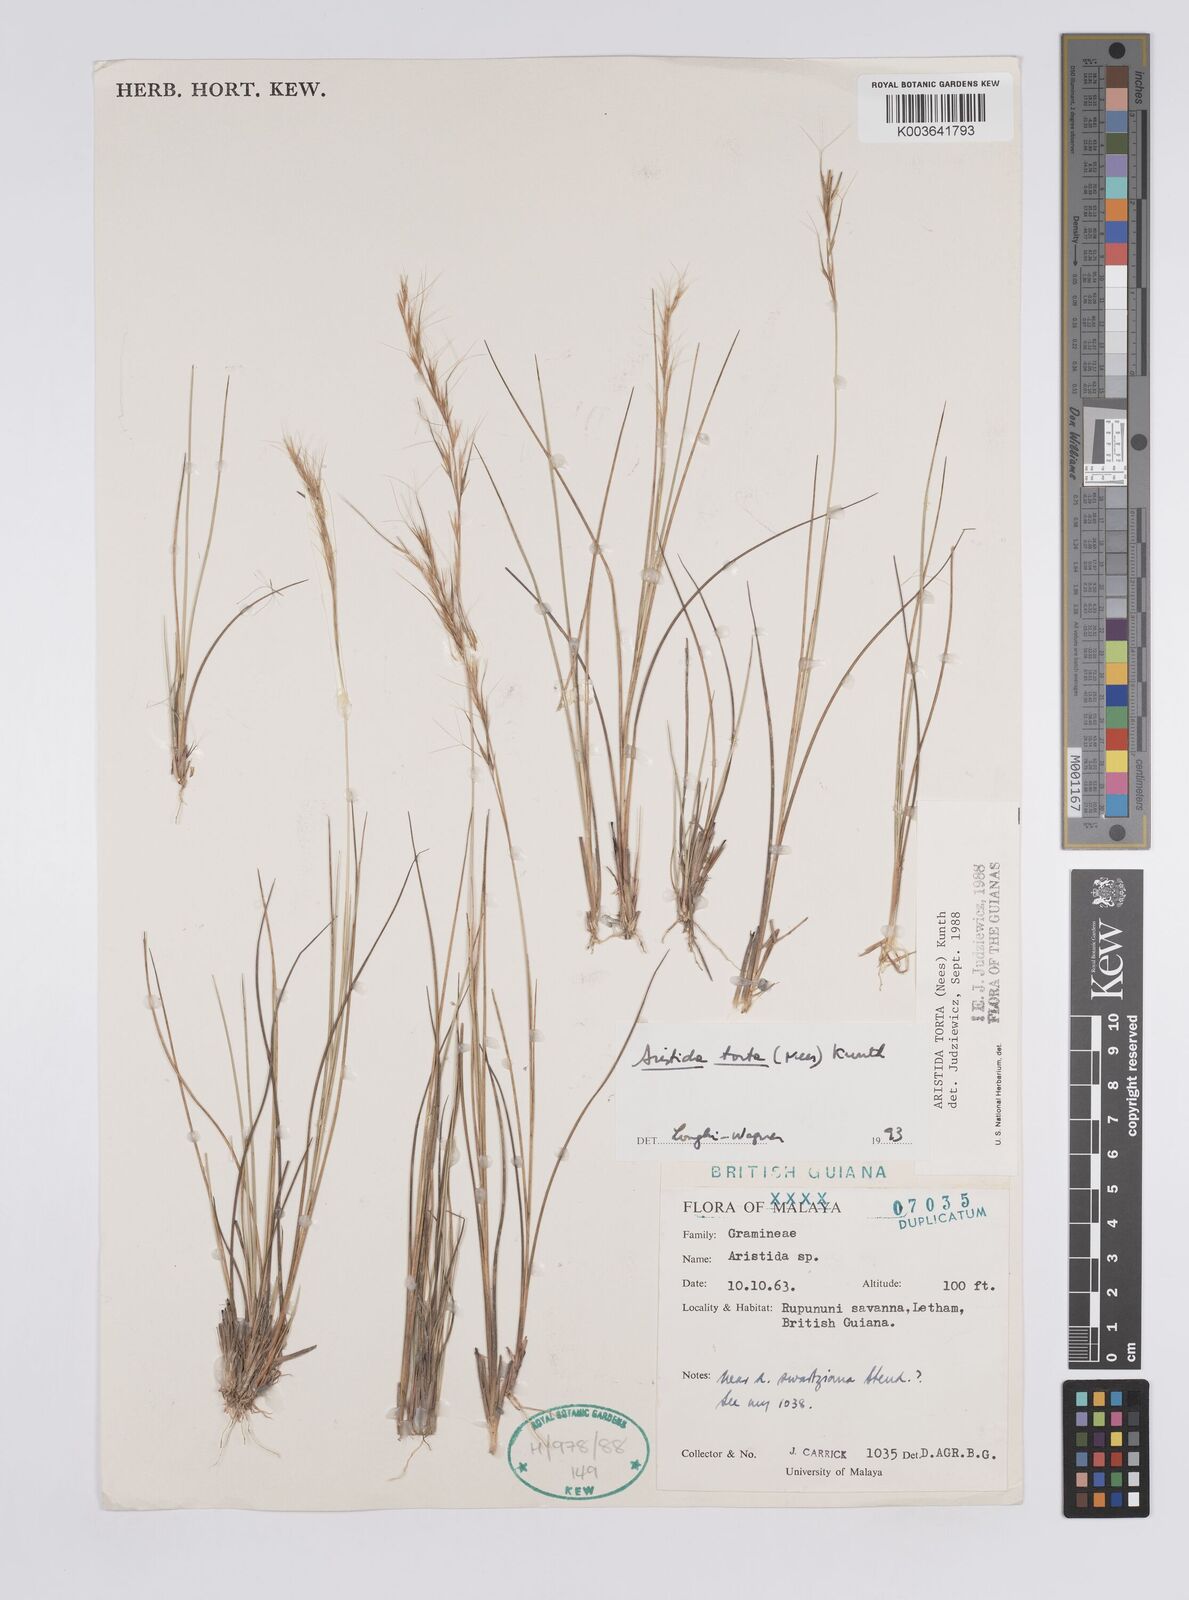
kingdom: Plantae
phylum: Tracheophyta
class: Liliopsida
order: Poales
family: Poaceae
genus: Aristida
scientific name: Aristida torta
